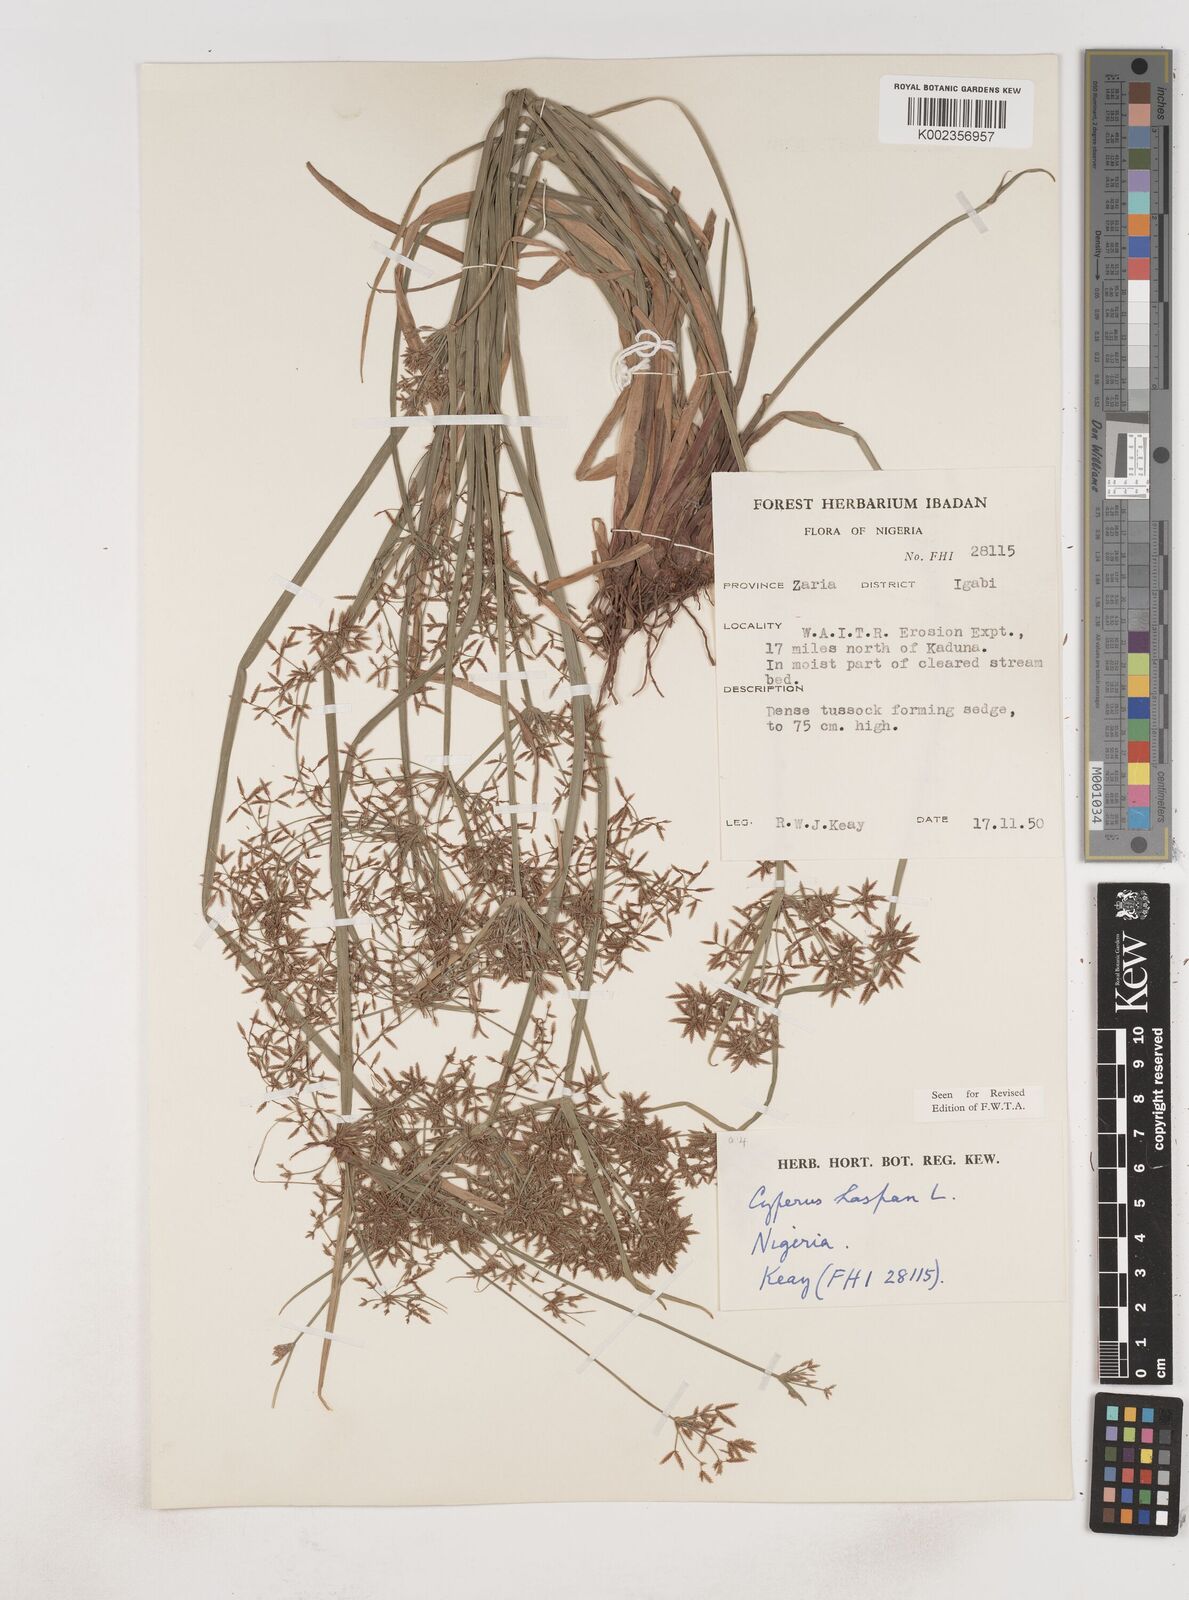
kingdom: Plantae
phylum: Tracheophyta
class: Liliopsida
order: Poales
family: Cyperaceae
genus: Cyperus
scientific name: Cyperus haspan
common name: Haspan flatsedge
